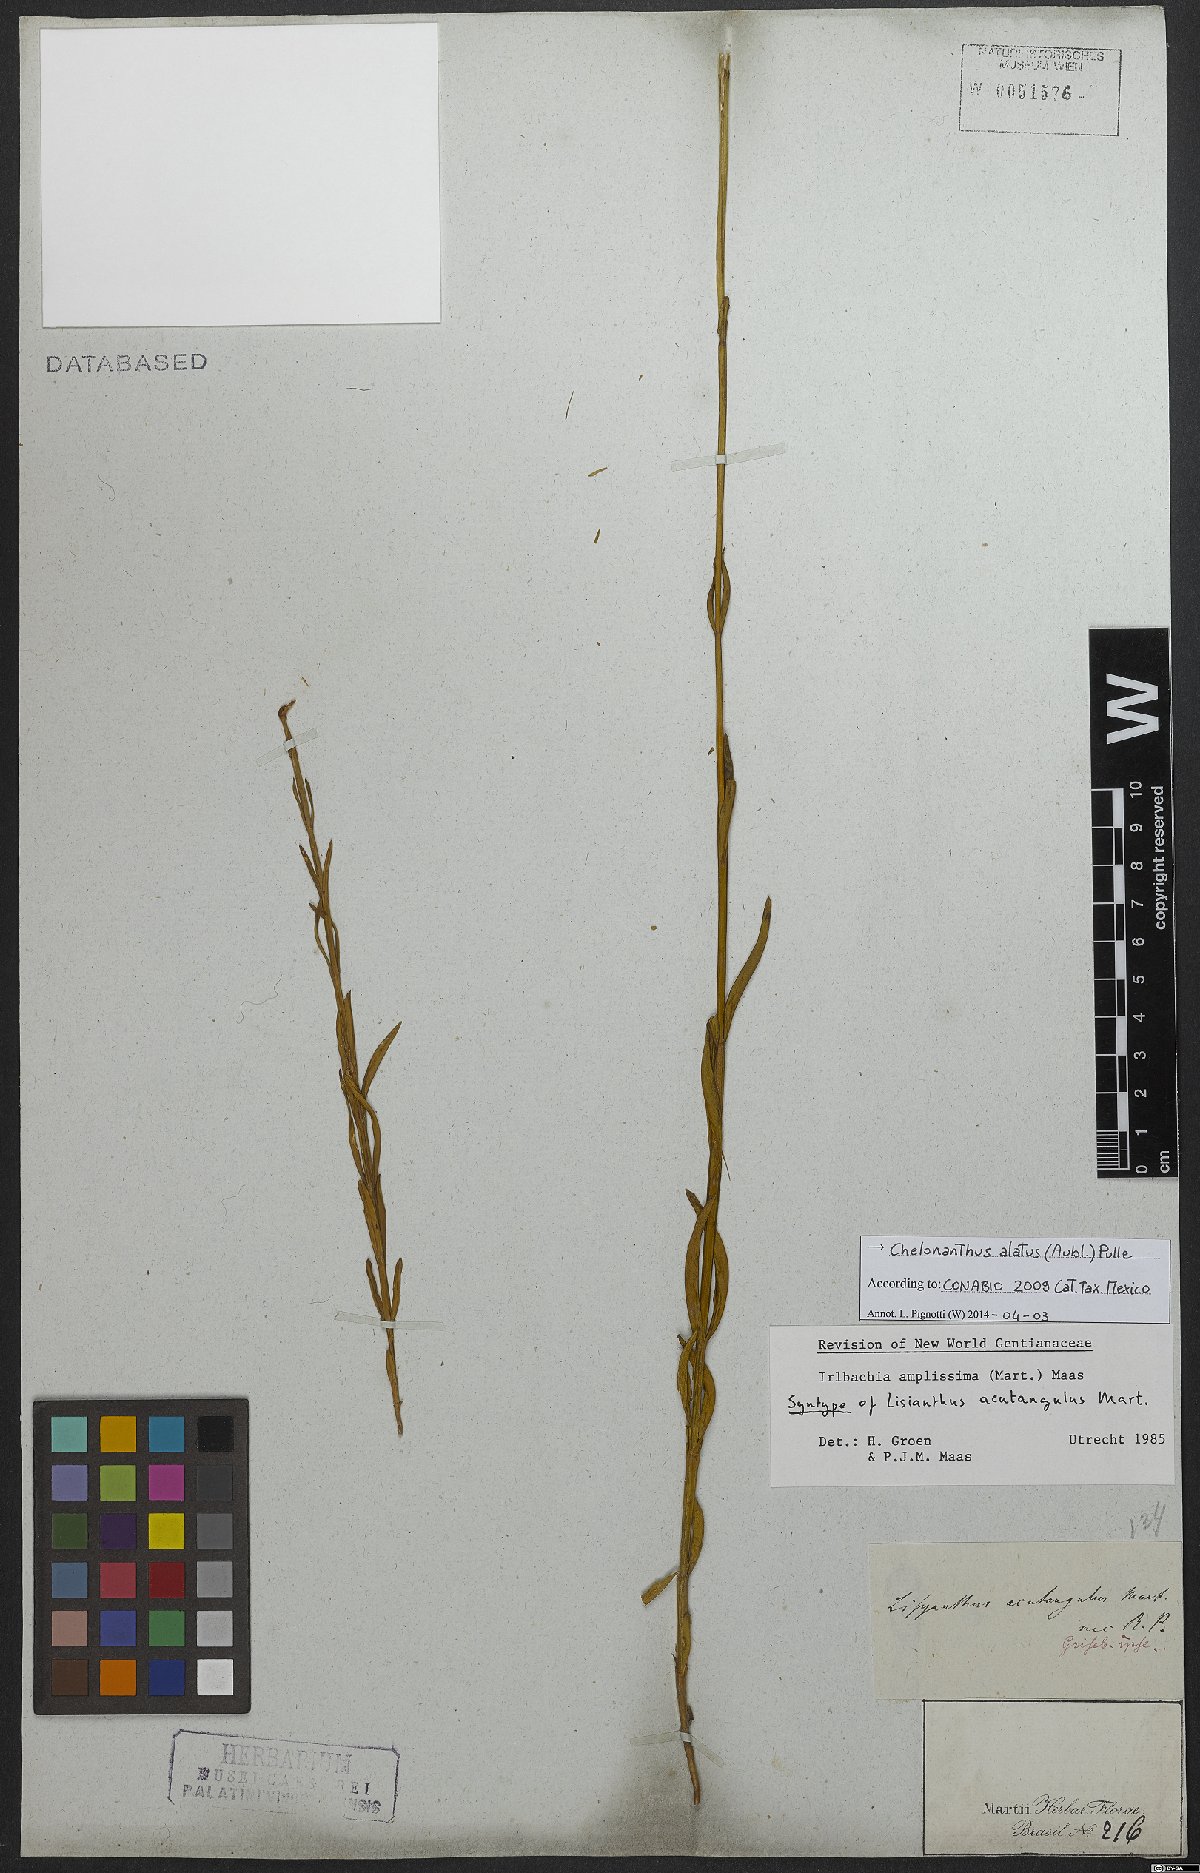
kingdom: Plantae
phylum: Tracheophyta
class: Magnoliopsida
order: Gentianales
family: Gentianaceae
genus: Chelonanthus
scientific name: Chelonanthus alatus
